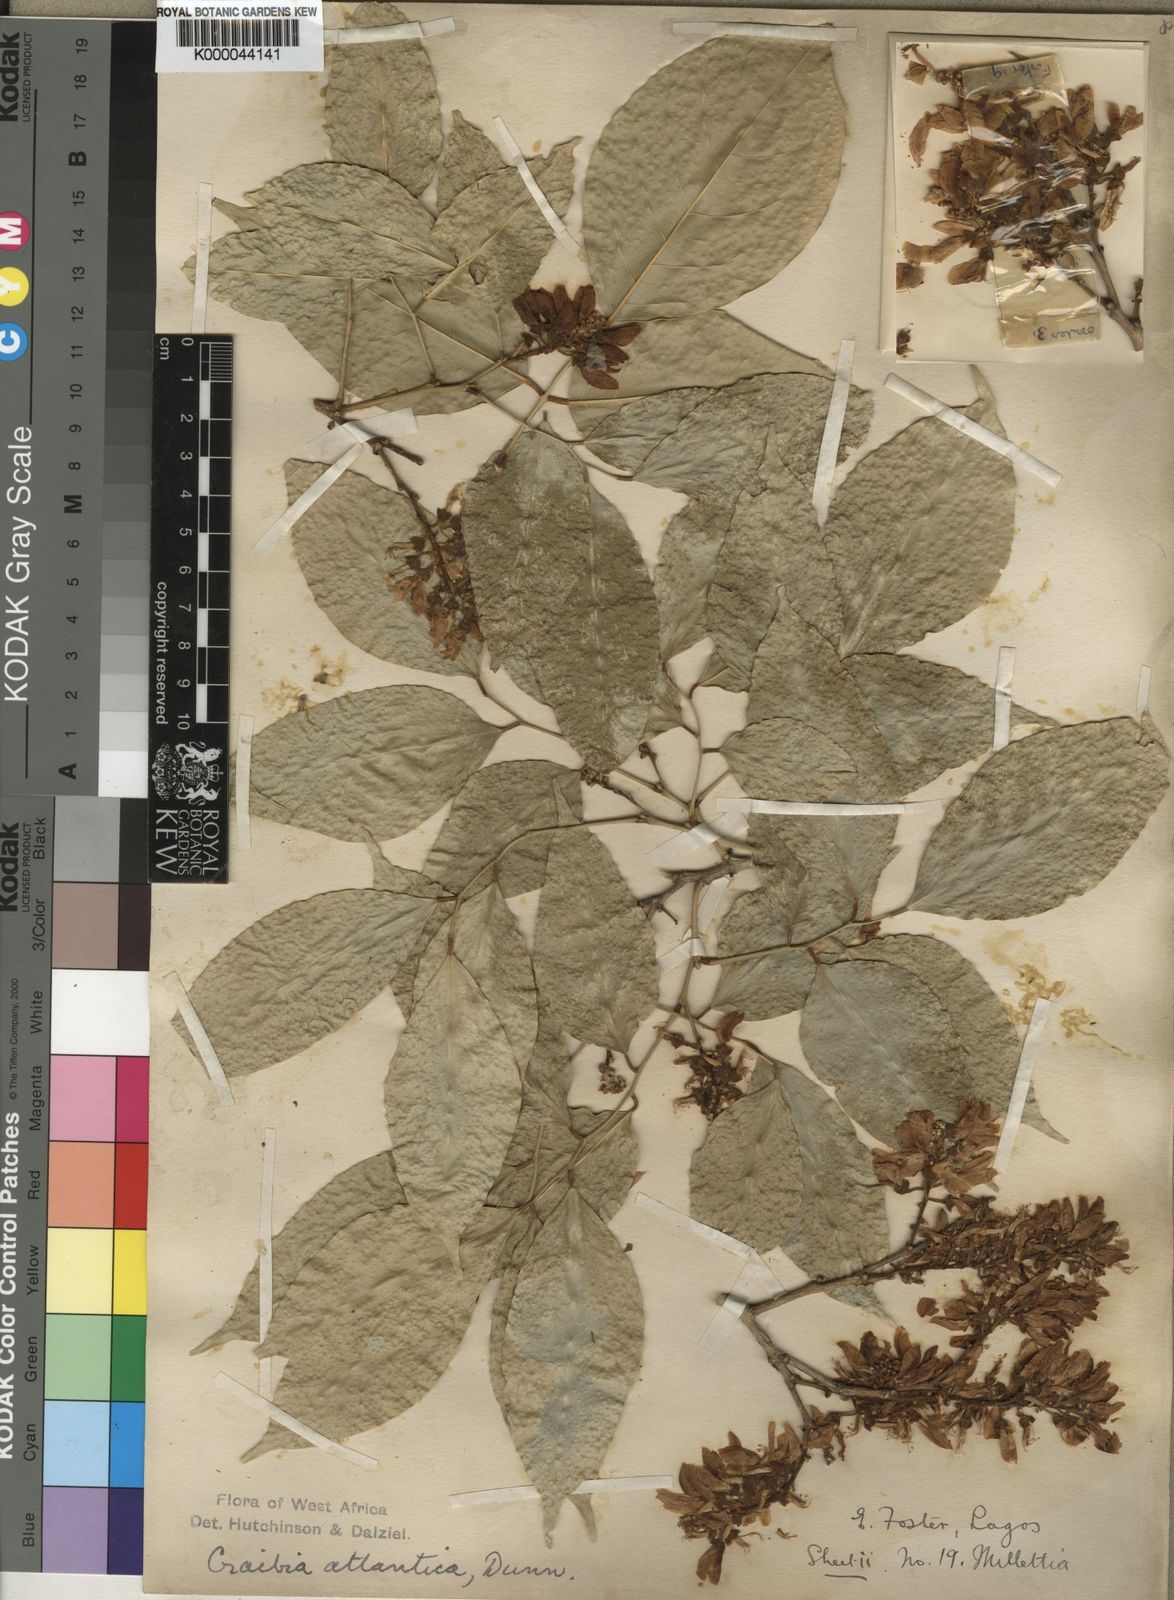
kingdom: Plantae
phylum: Tracheophyta
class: Magnoliopsida
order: Fabales
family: Fabaceae
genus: Craibia
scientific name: Craibia atlantica
